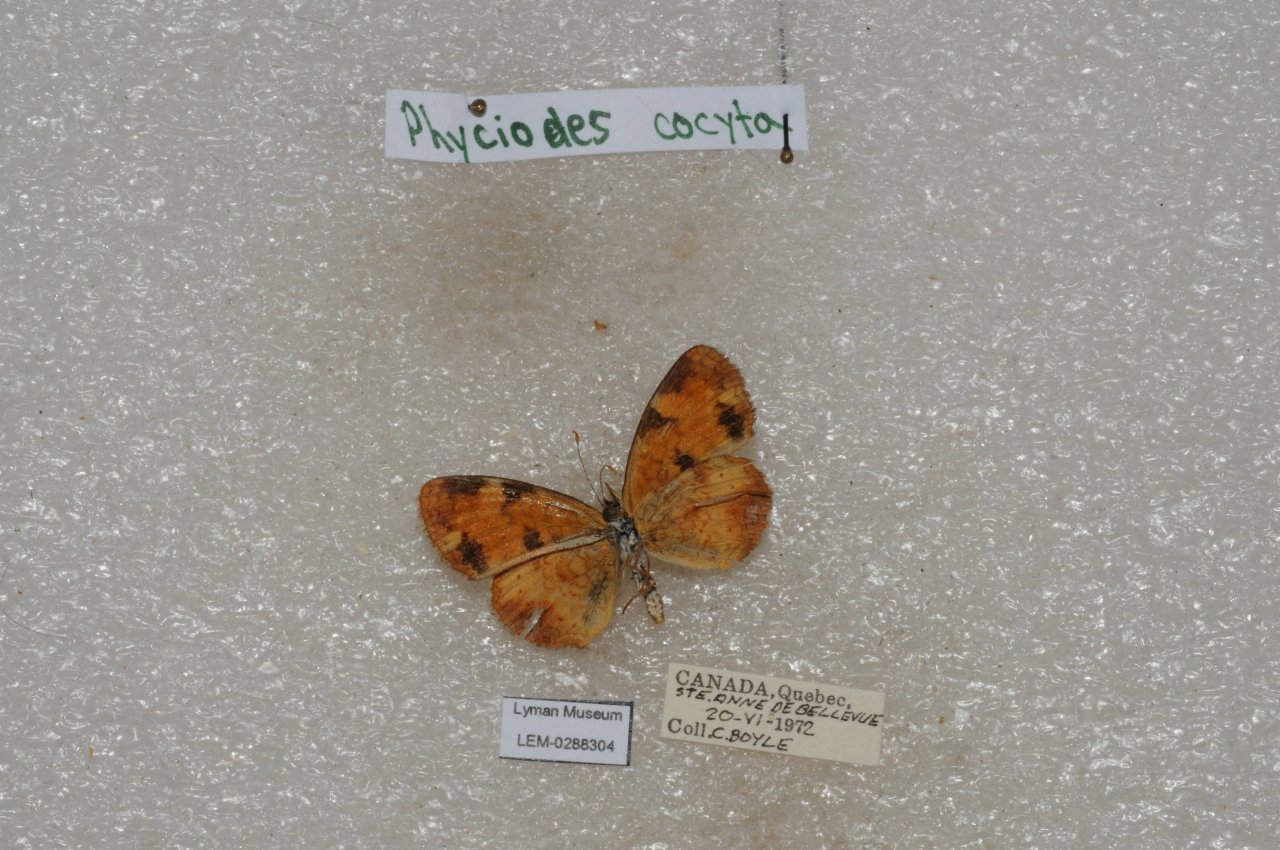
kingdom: Animalia
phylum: Arthropoda
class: Insecta
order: Lepidoptera
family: Nymphalidae
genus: Phyciodes
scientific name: Phyciodes tharos
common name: Northern Crescent
